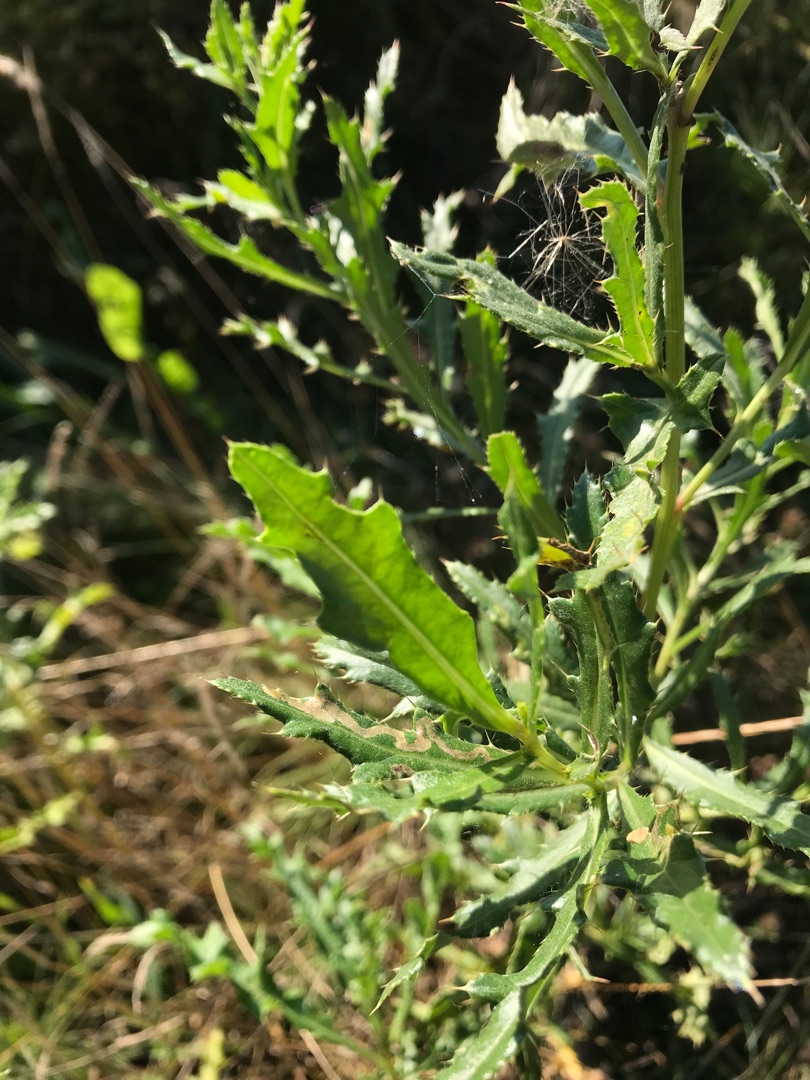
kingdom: Plantae
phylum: Tracheophyta
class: Magnoliopsida
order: Asterales
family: Asteraceae
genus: Cirsium
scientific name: Cirsium arvense
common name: Ager-tidsel
